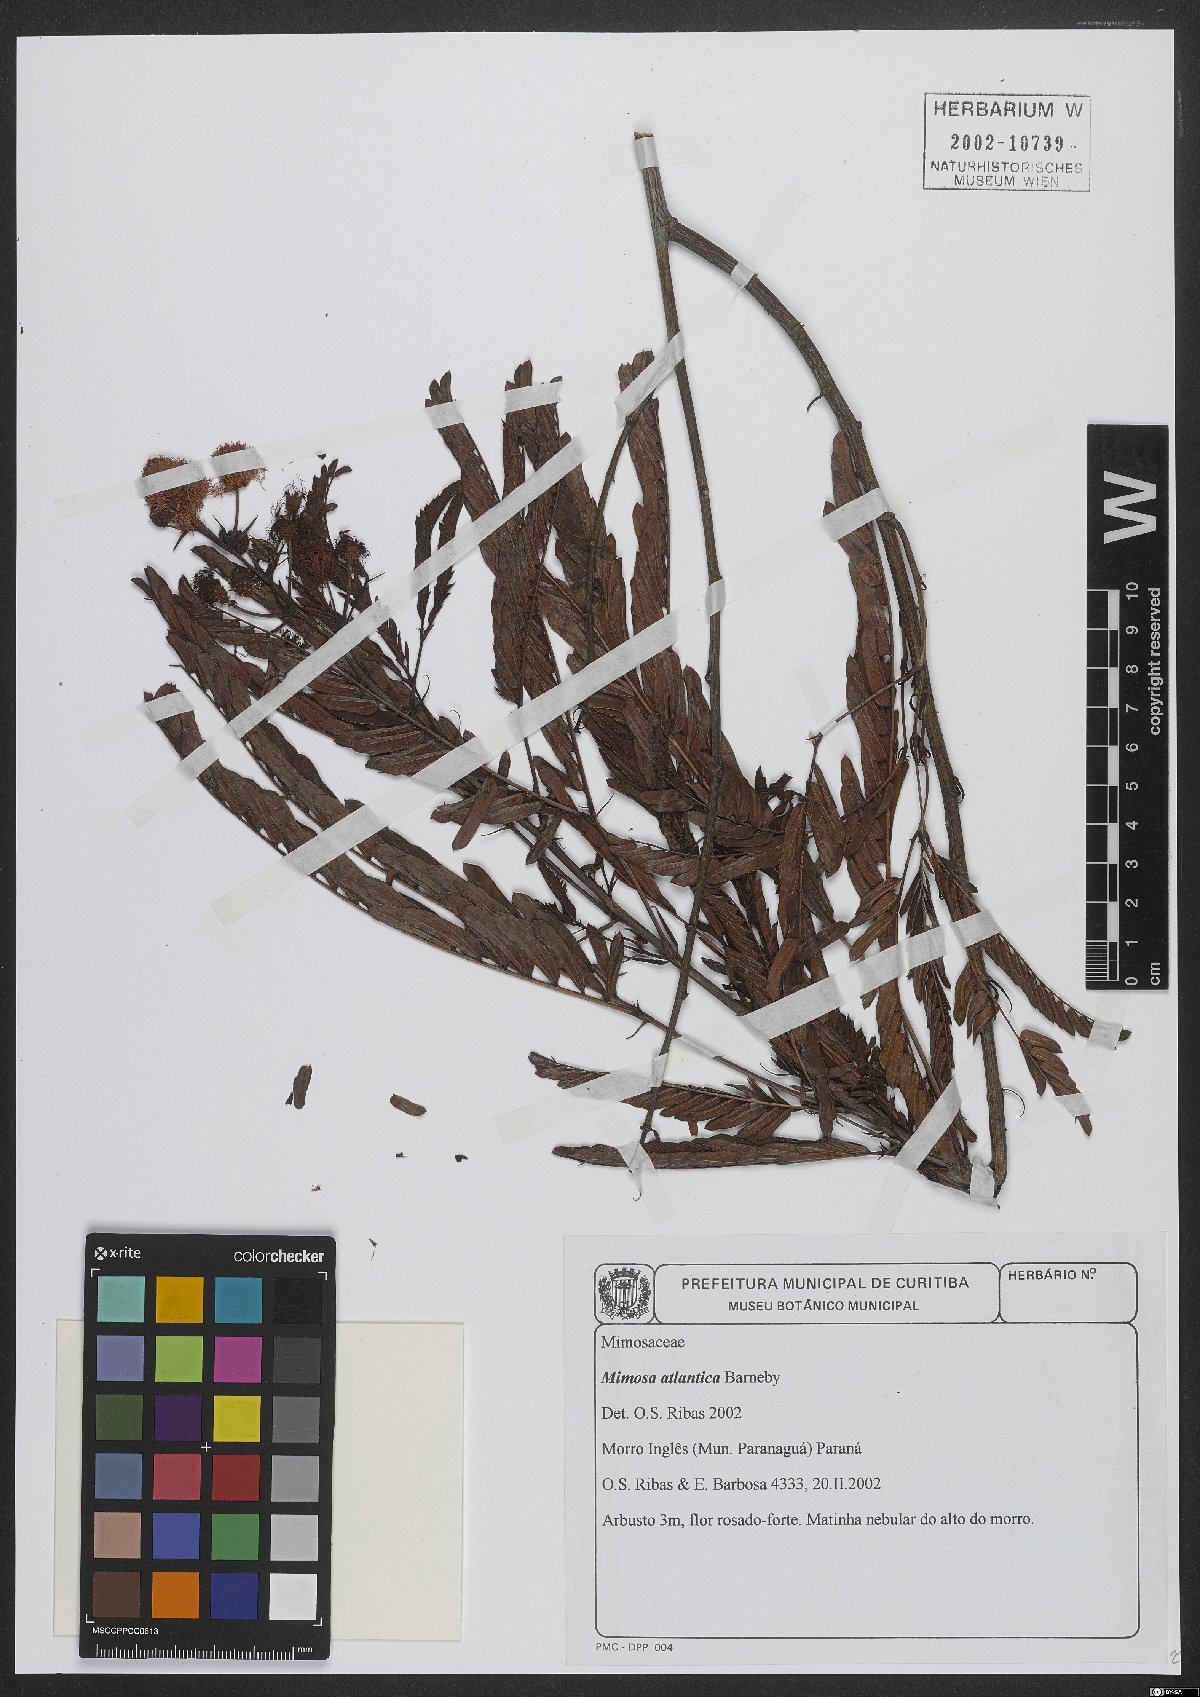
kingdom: Plantae
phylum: Tracheophyta
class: Magnoliopsida
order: Fabales
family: Fabaceae
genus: Mimosa
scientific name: Mimosa atlantica
